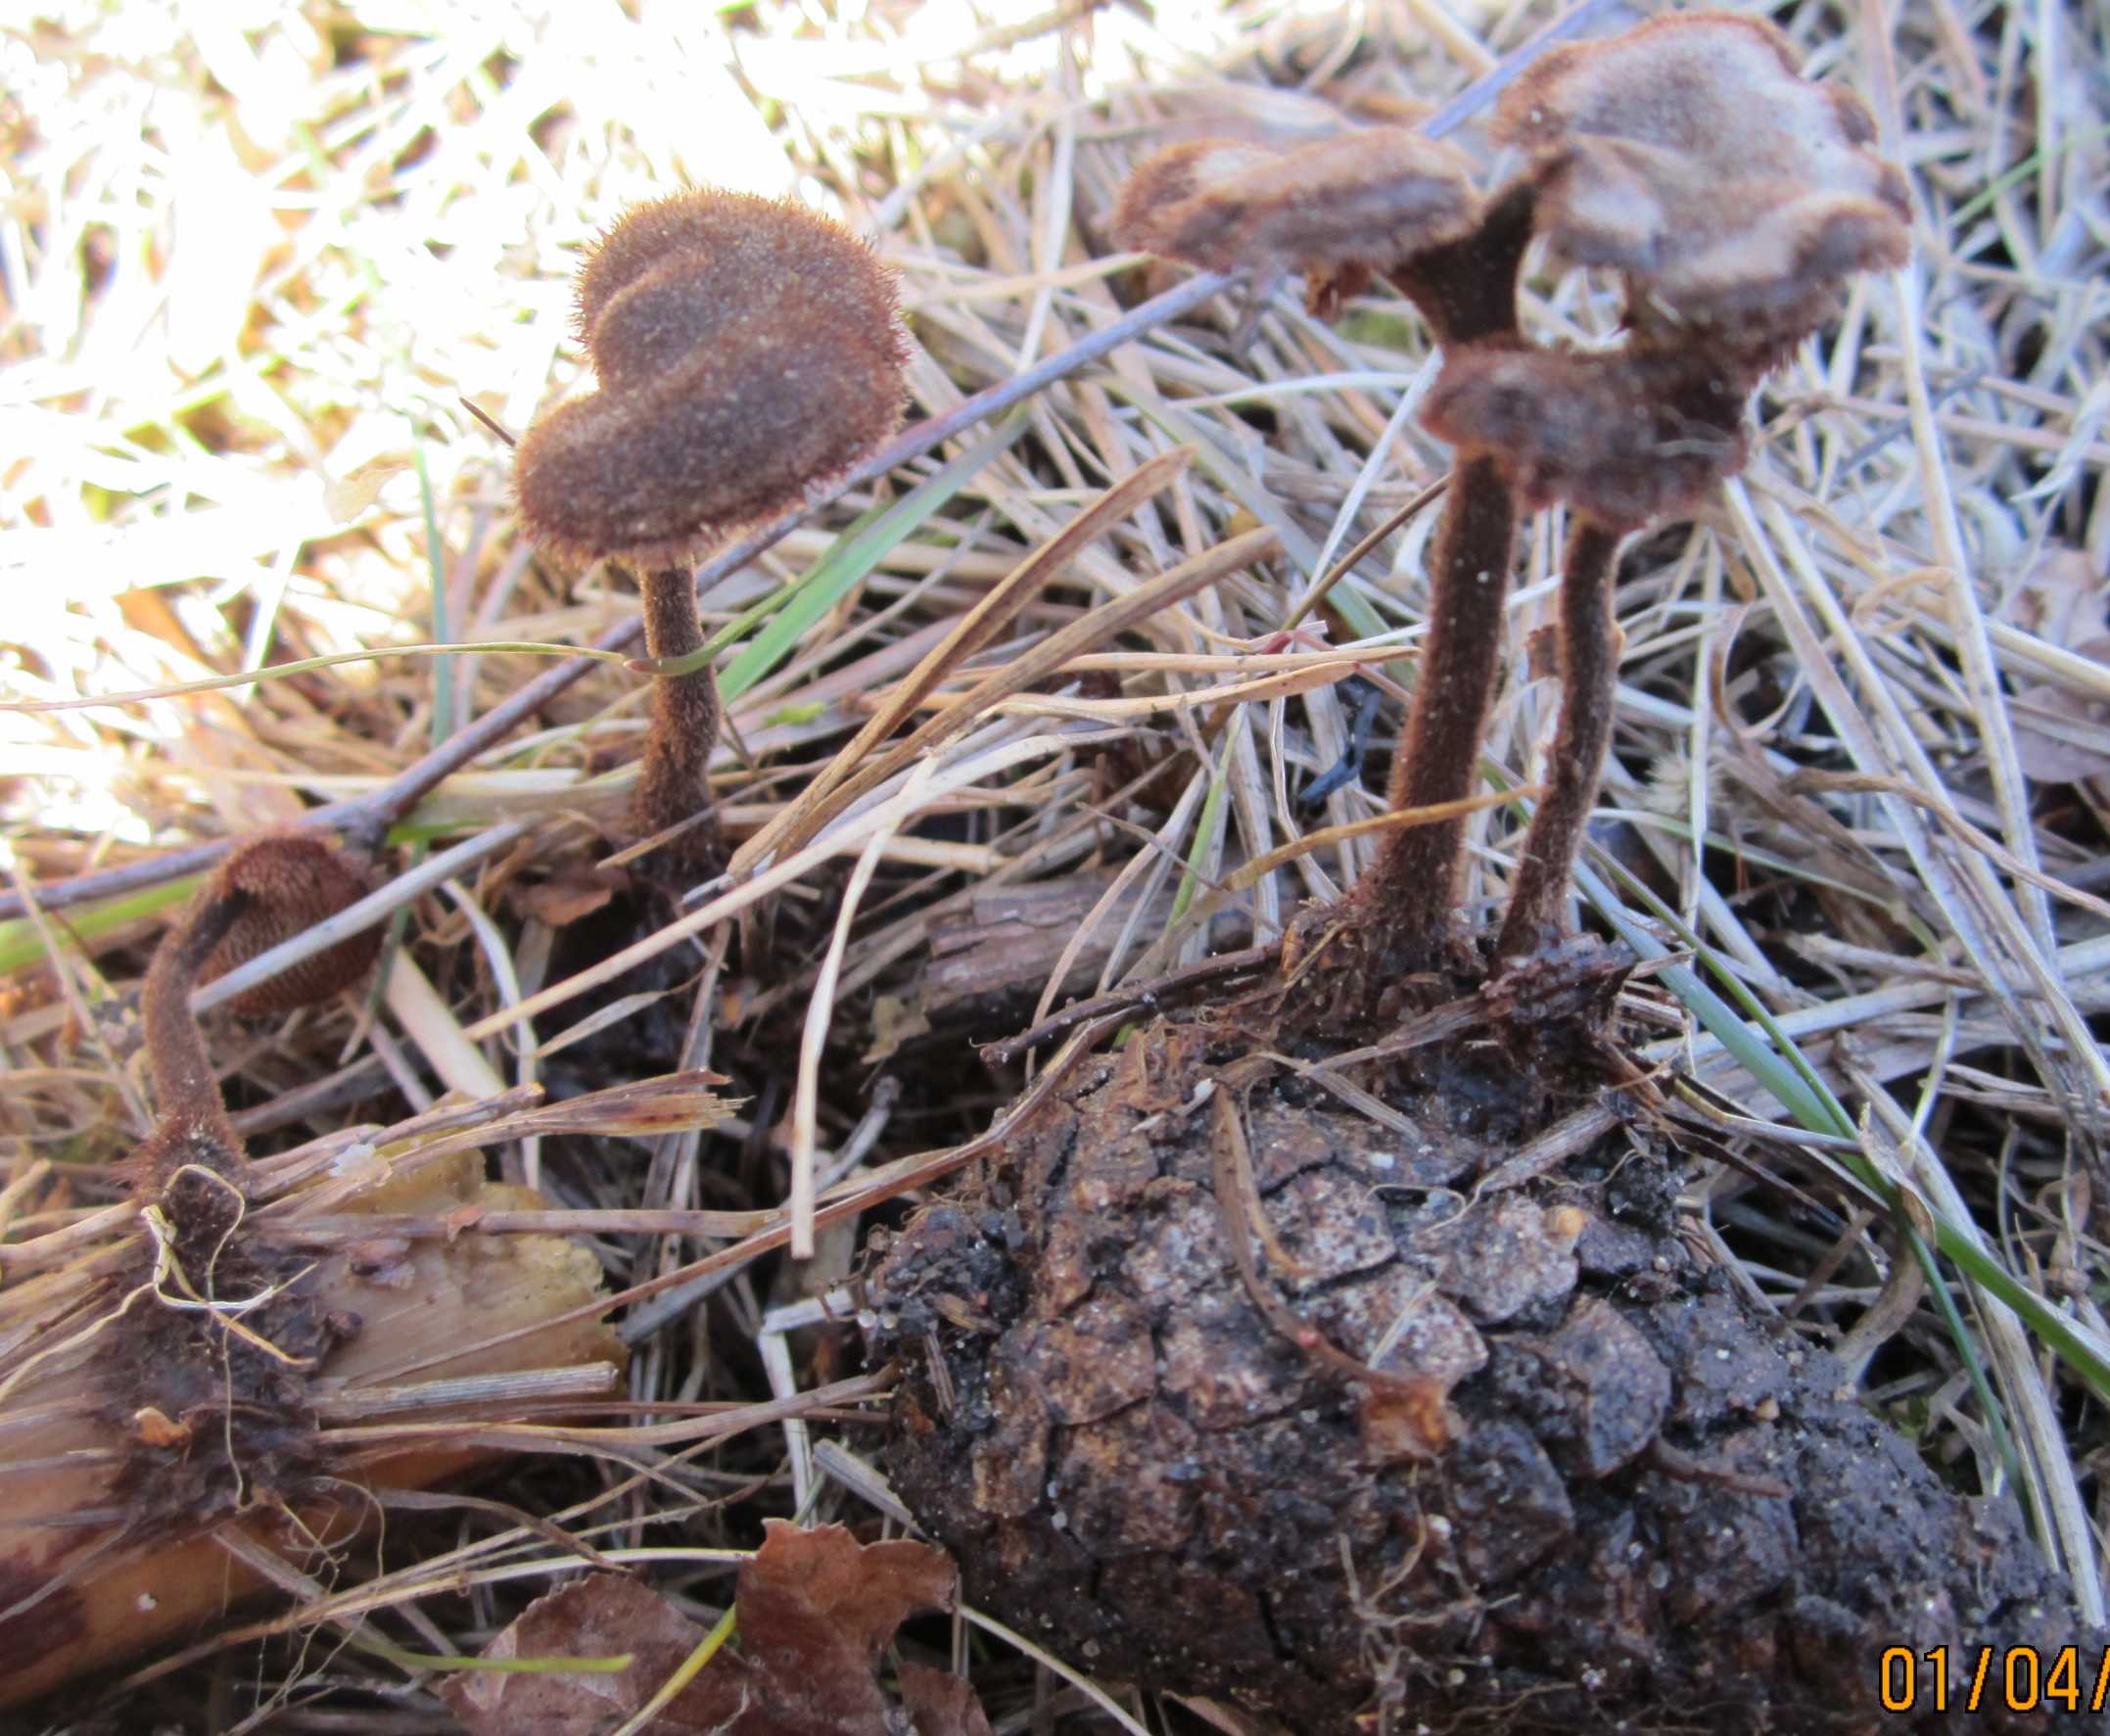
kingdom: Fungi
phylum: Basidiomycota
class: Agaricomycetes
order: Russulales
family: Auriscalpiaceae
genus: Auriscalpium
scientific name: Auriscalpium vulgare
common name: koglepigsvamp
